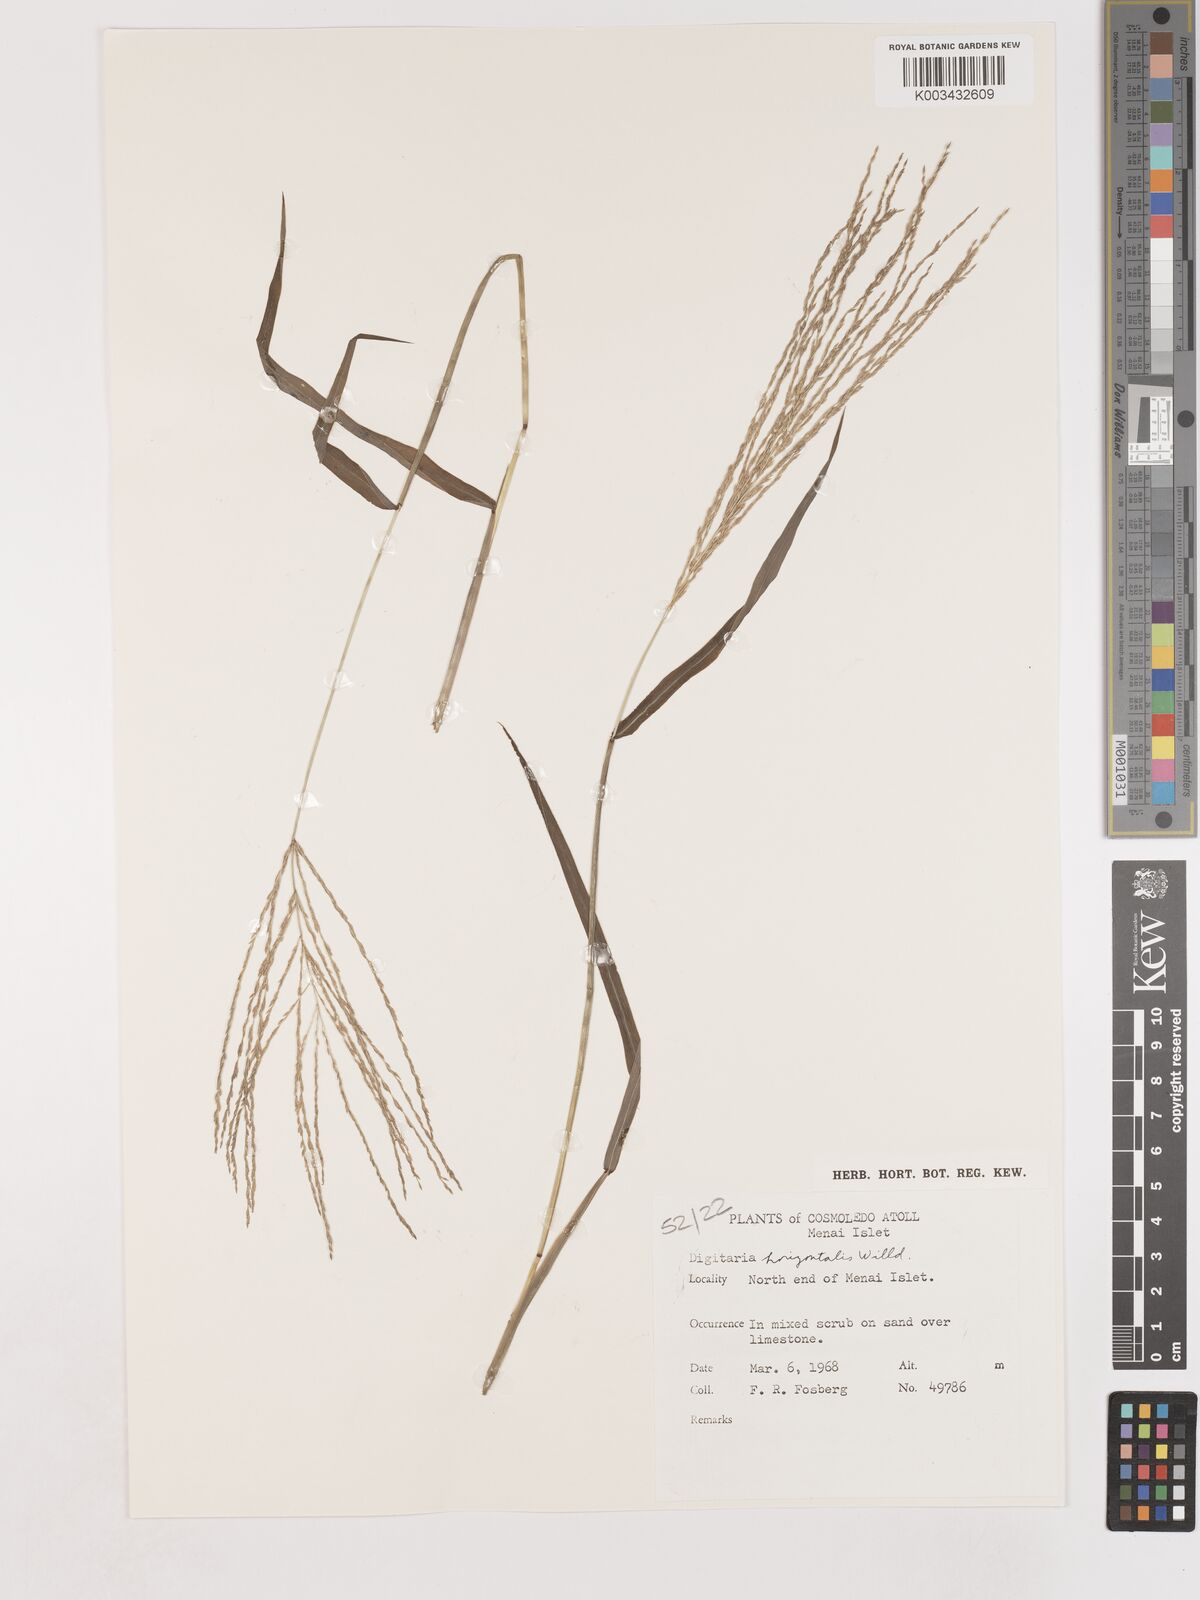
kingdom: Plantae
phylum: Tracheophyta
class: Liliopsida
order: Poales
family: Poaceae
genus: Digitaria
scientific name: Digitaria horizontalis
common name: Jamaican crabgrass
